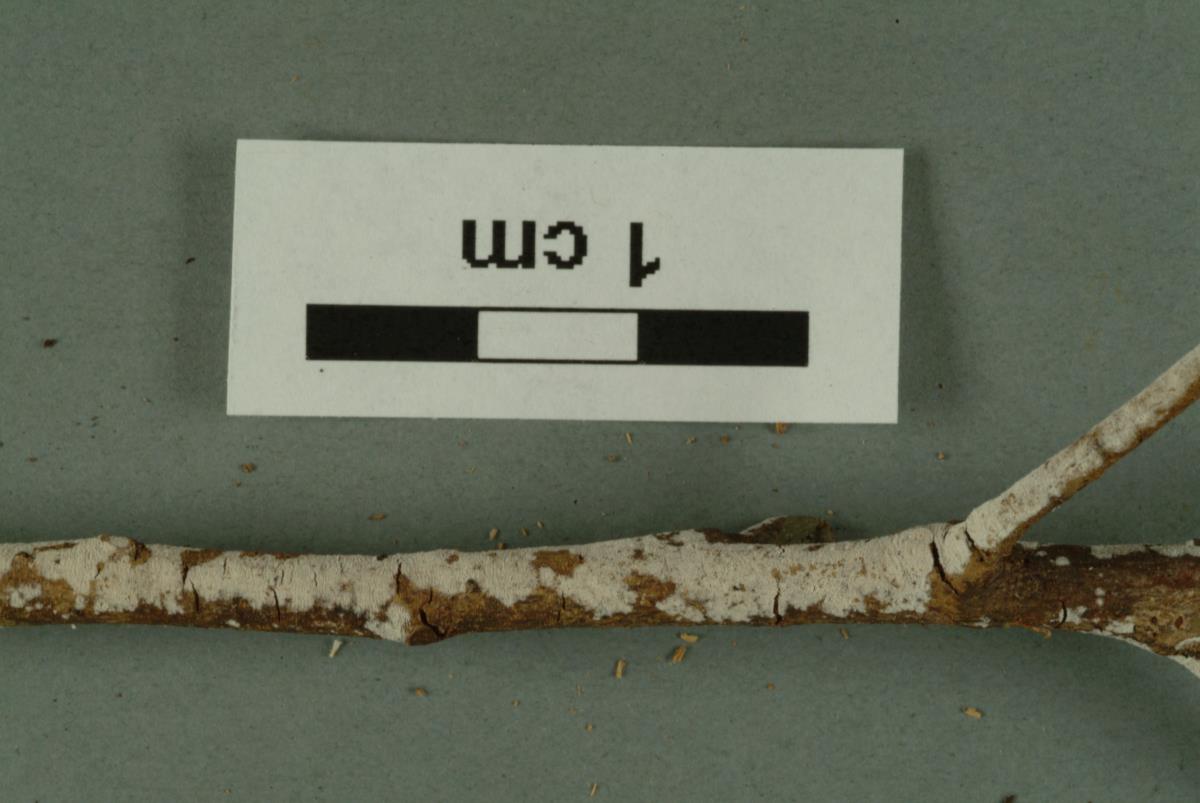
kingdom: Fungi
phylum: Basidiomycota
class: Agaricomycetes
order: Corticiales
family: Corticiaceae
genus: Lyomyces
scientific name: Lyomyces crustosus
